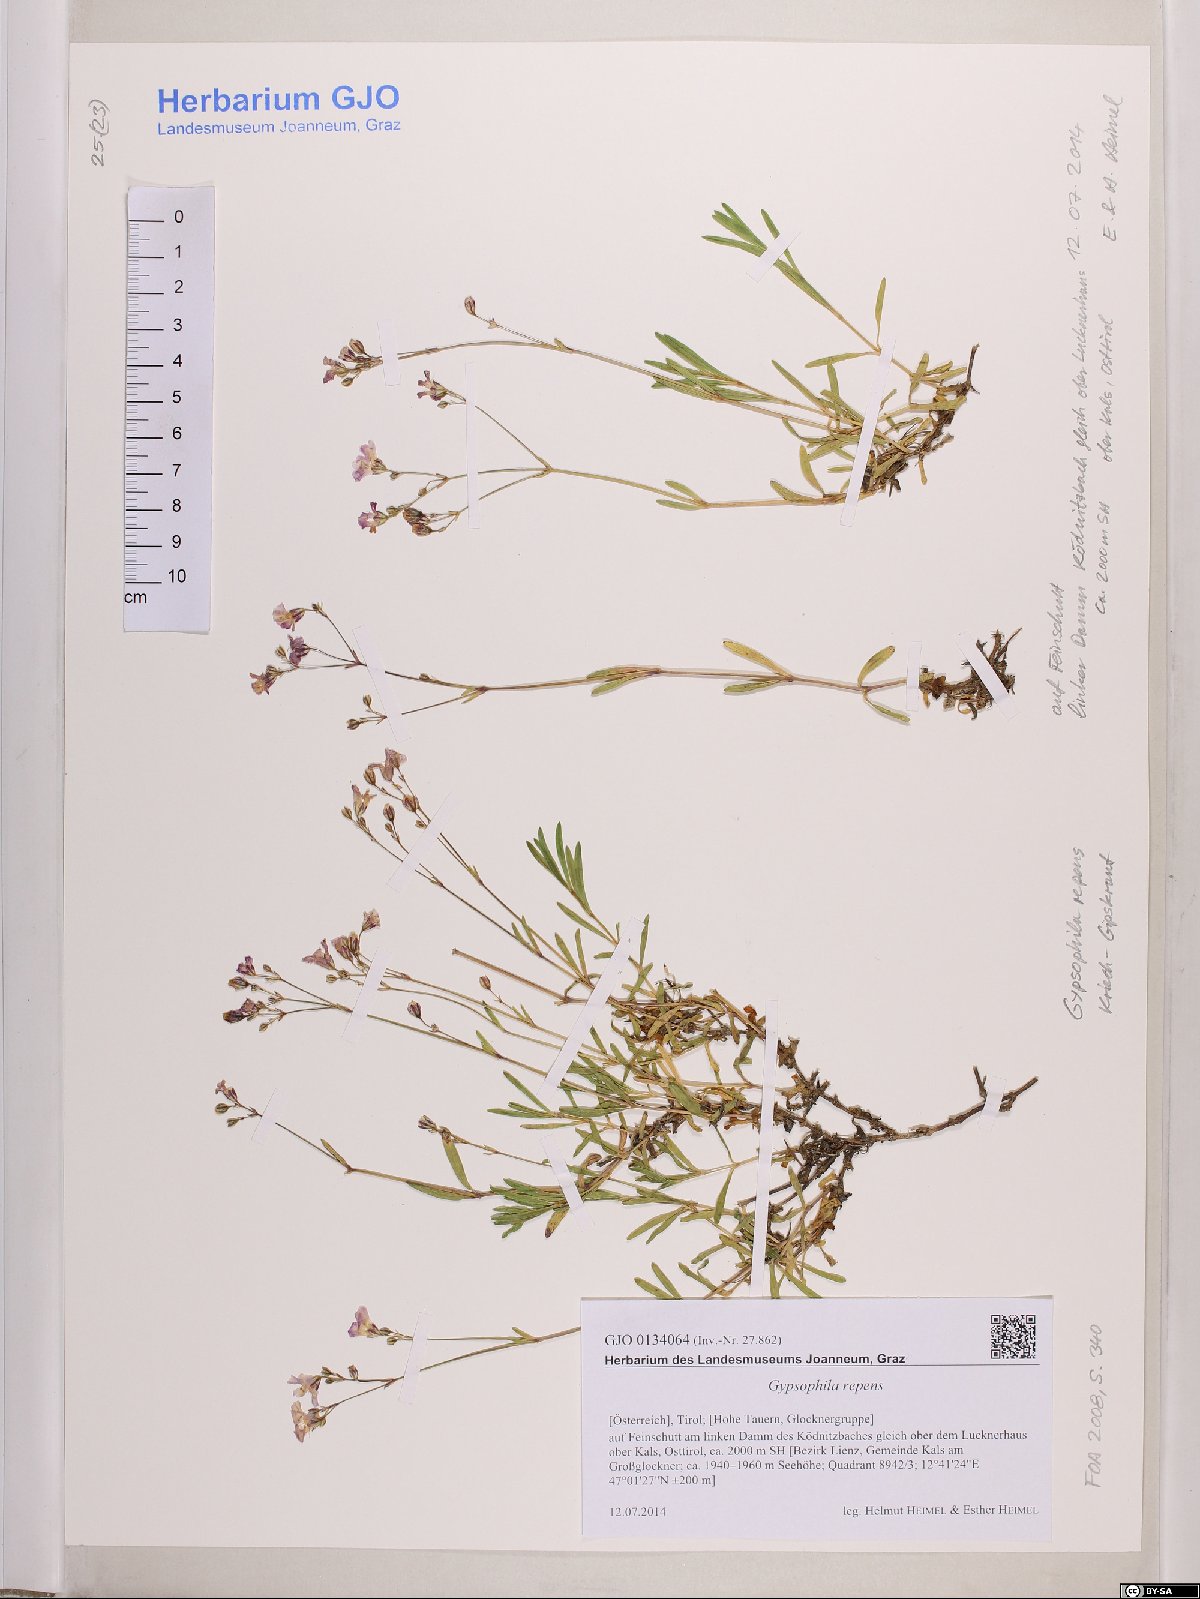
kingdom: Plantae
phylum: Tracheophyta
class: Magnoliopsida
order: Caryophyllales
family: Caryophyllaceae
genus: Gypsophila
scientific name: Gypsophila repens
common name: Creeping baby's-breath
